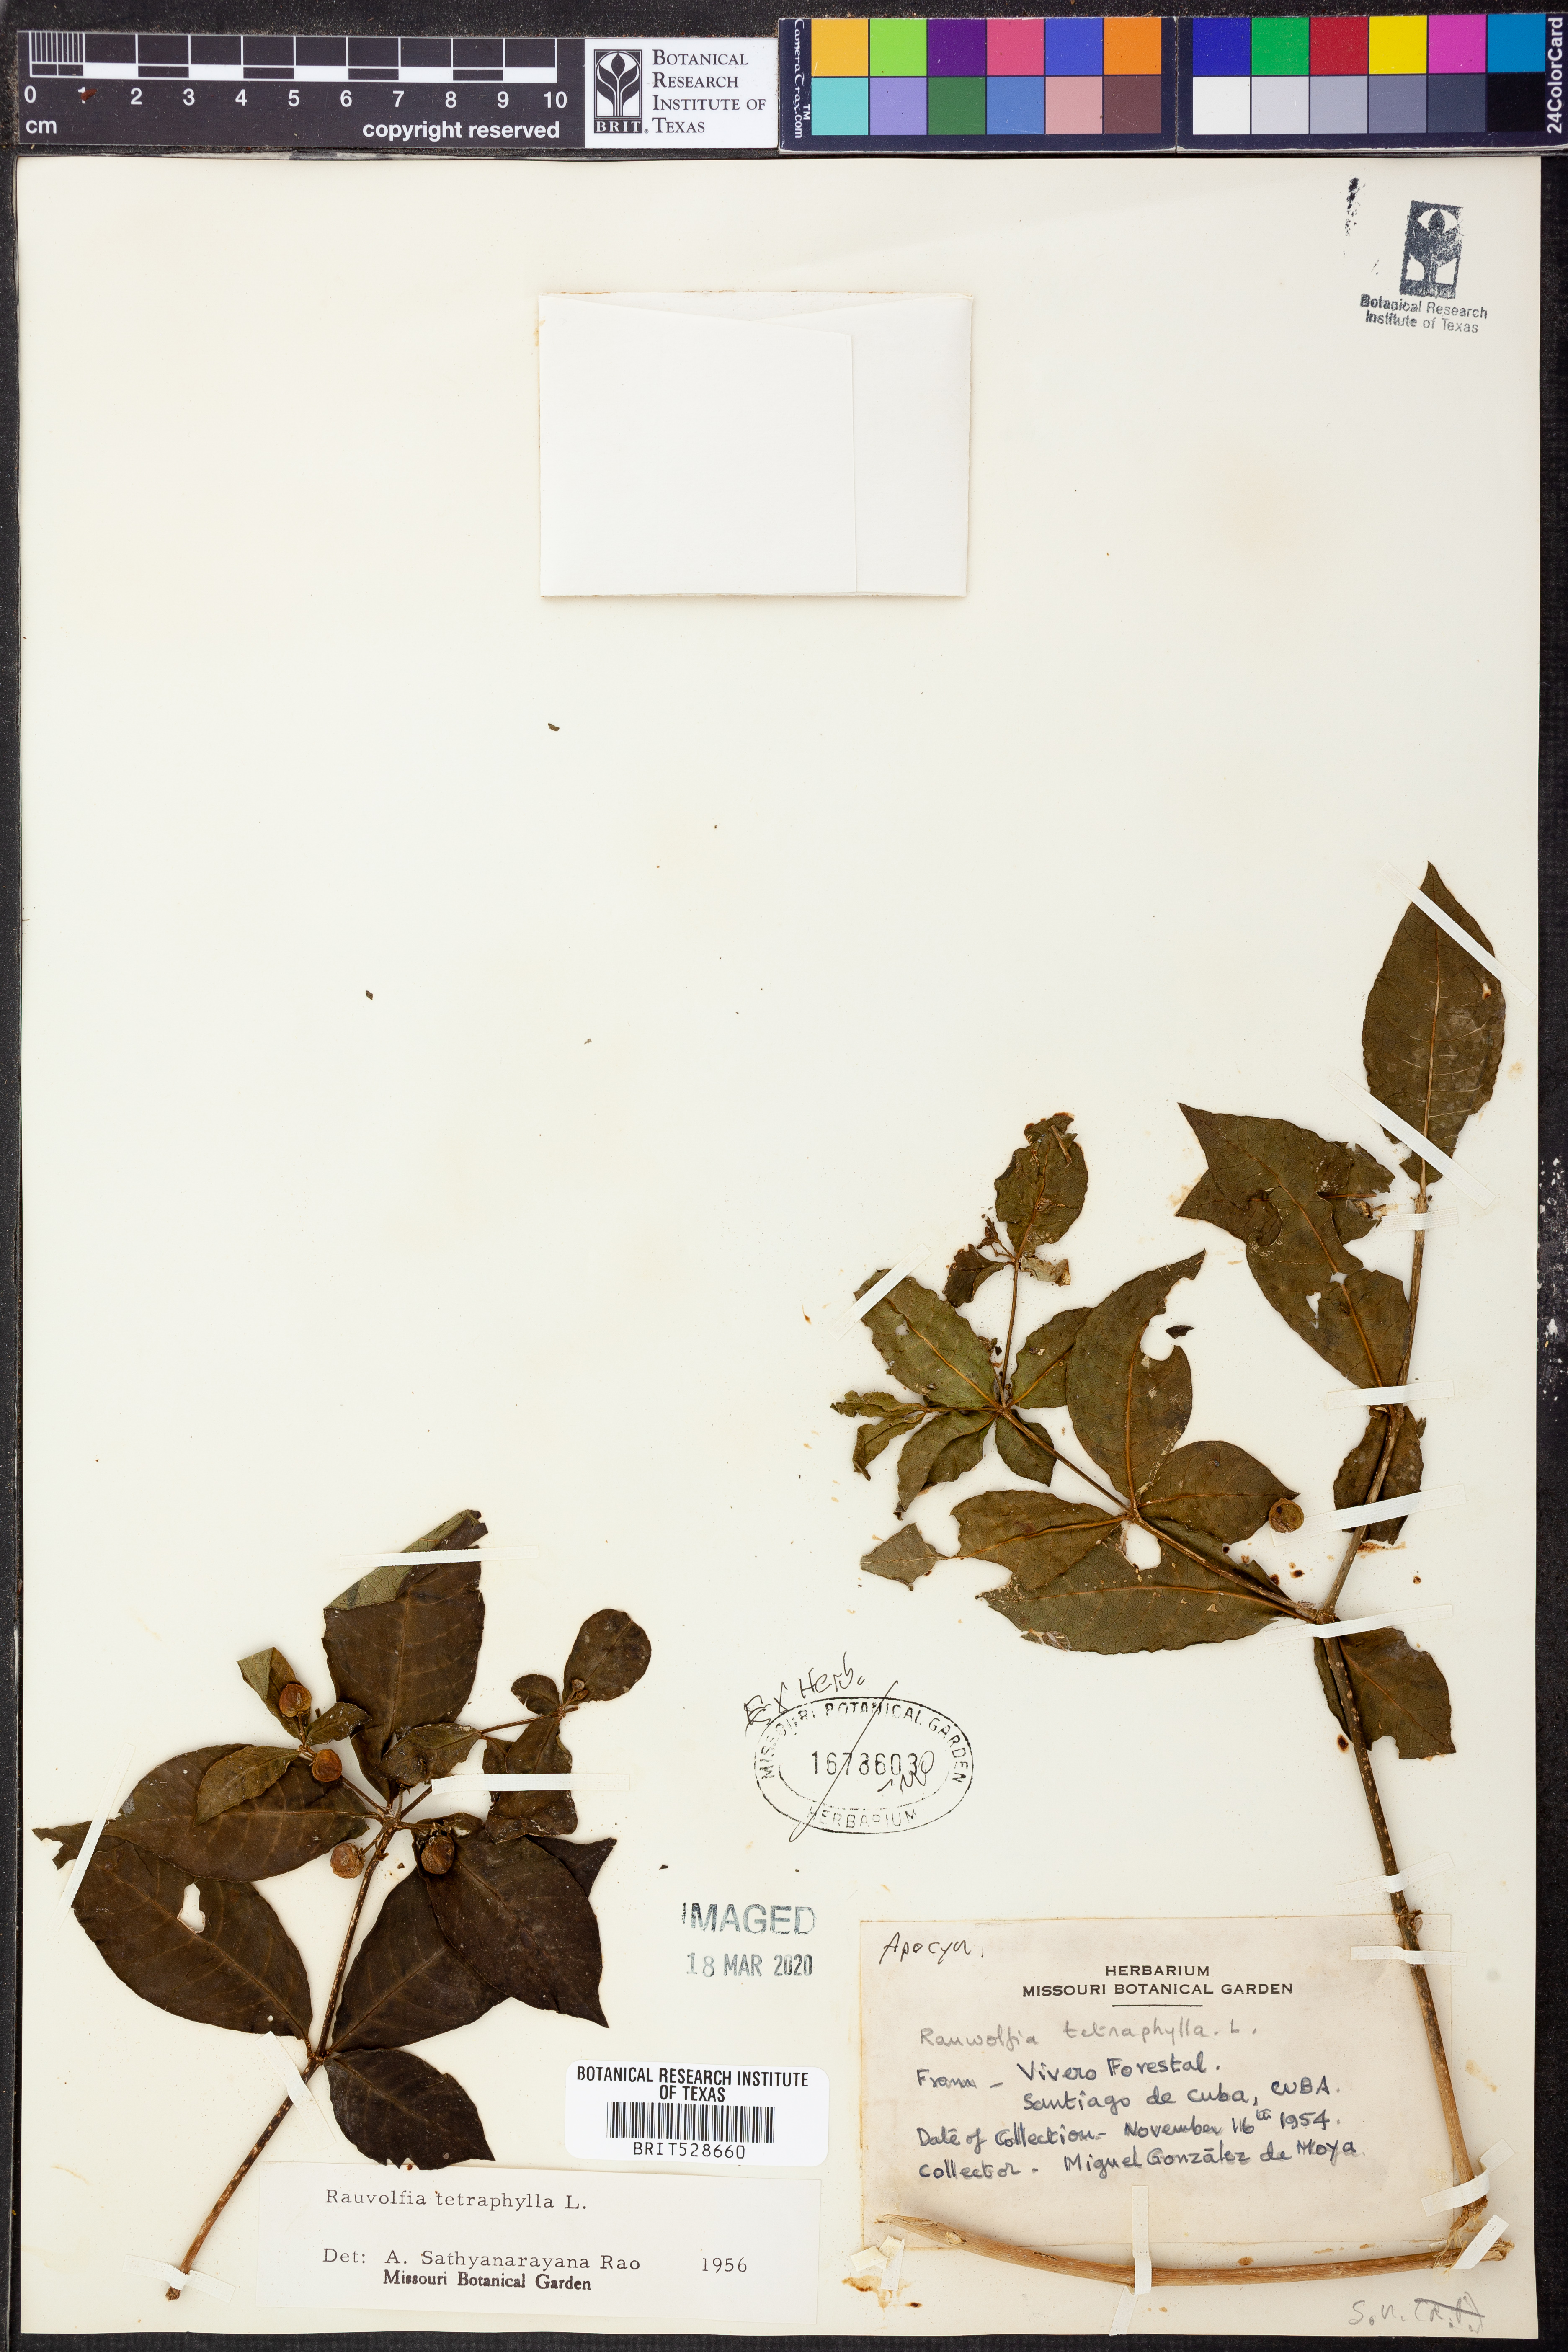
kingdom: Plantae
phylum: Tracheophyta
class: Magnoliopsida
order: Gentianales
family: Apocynaceae
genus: Rauvolfia
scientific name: Rauvolfia tetraphylla
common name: Four-leaf devil-pepper
